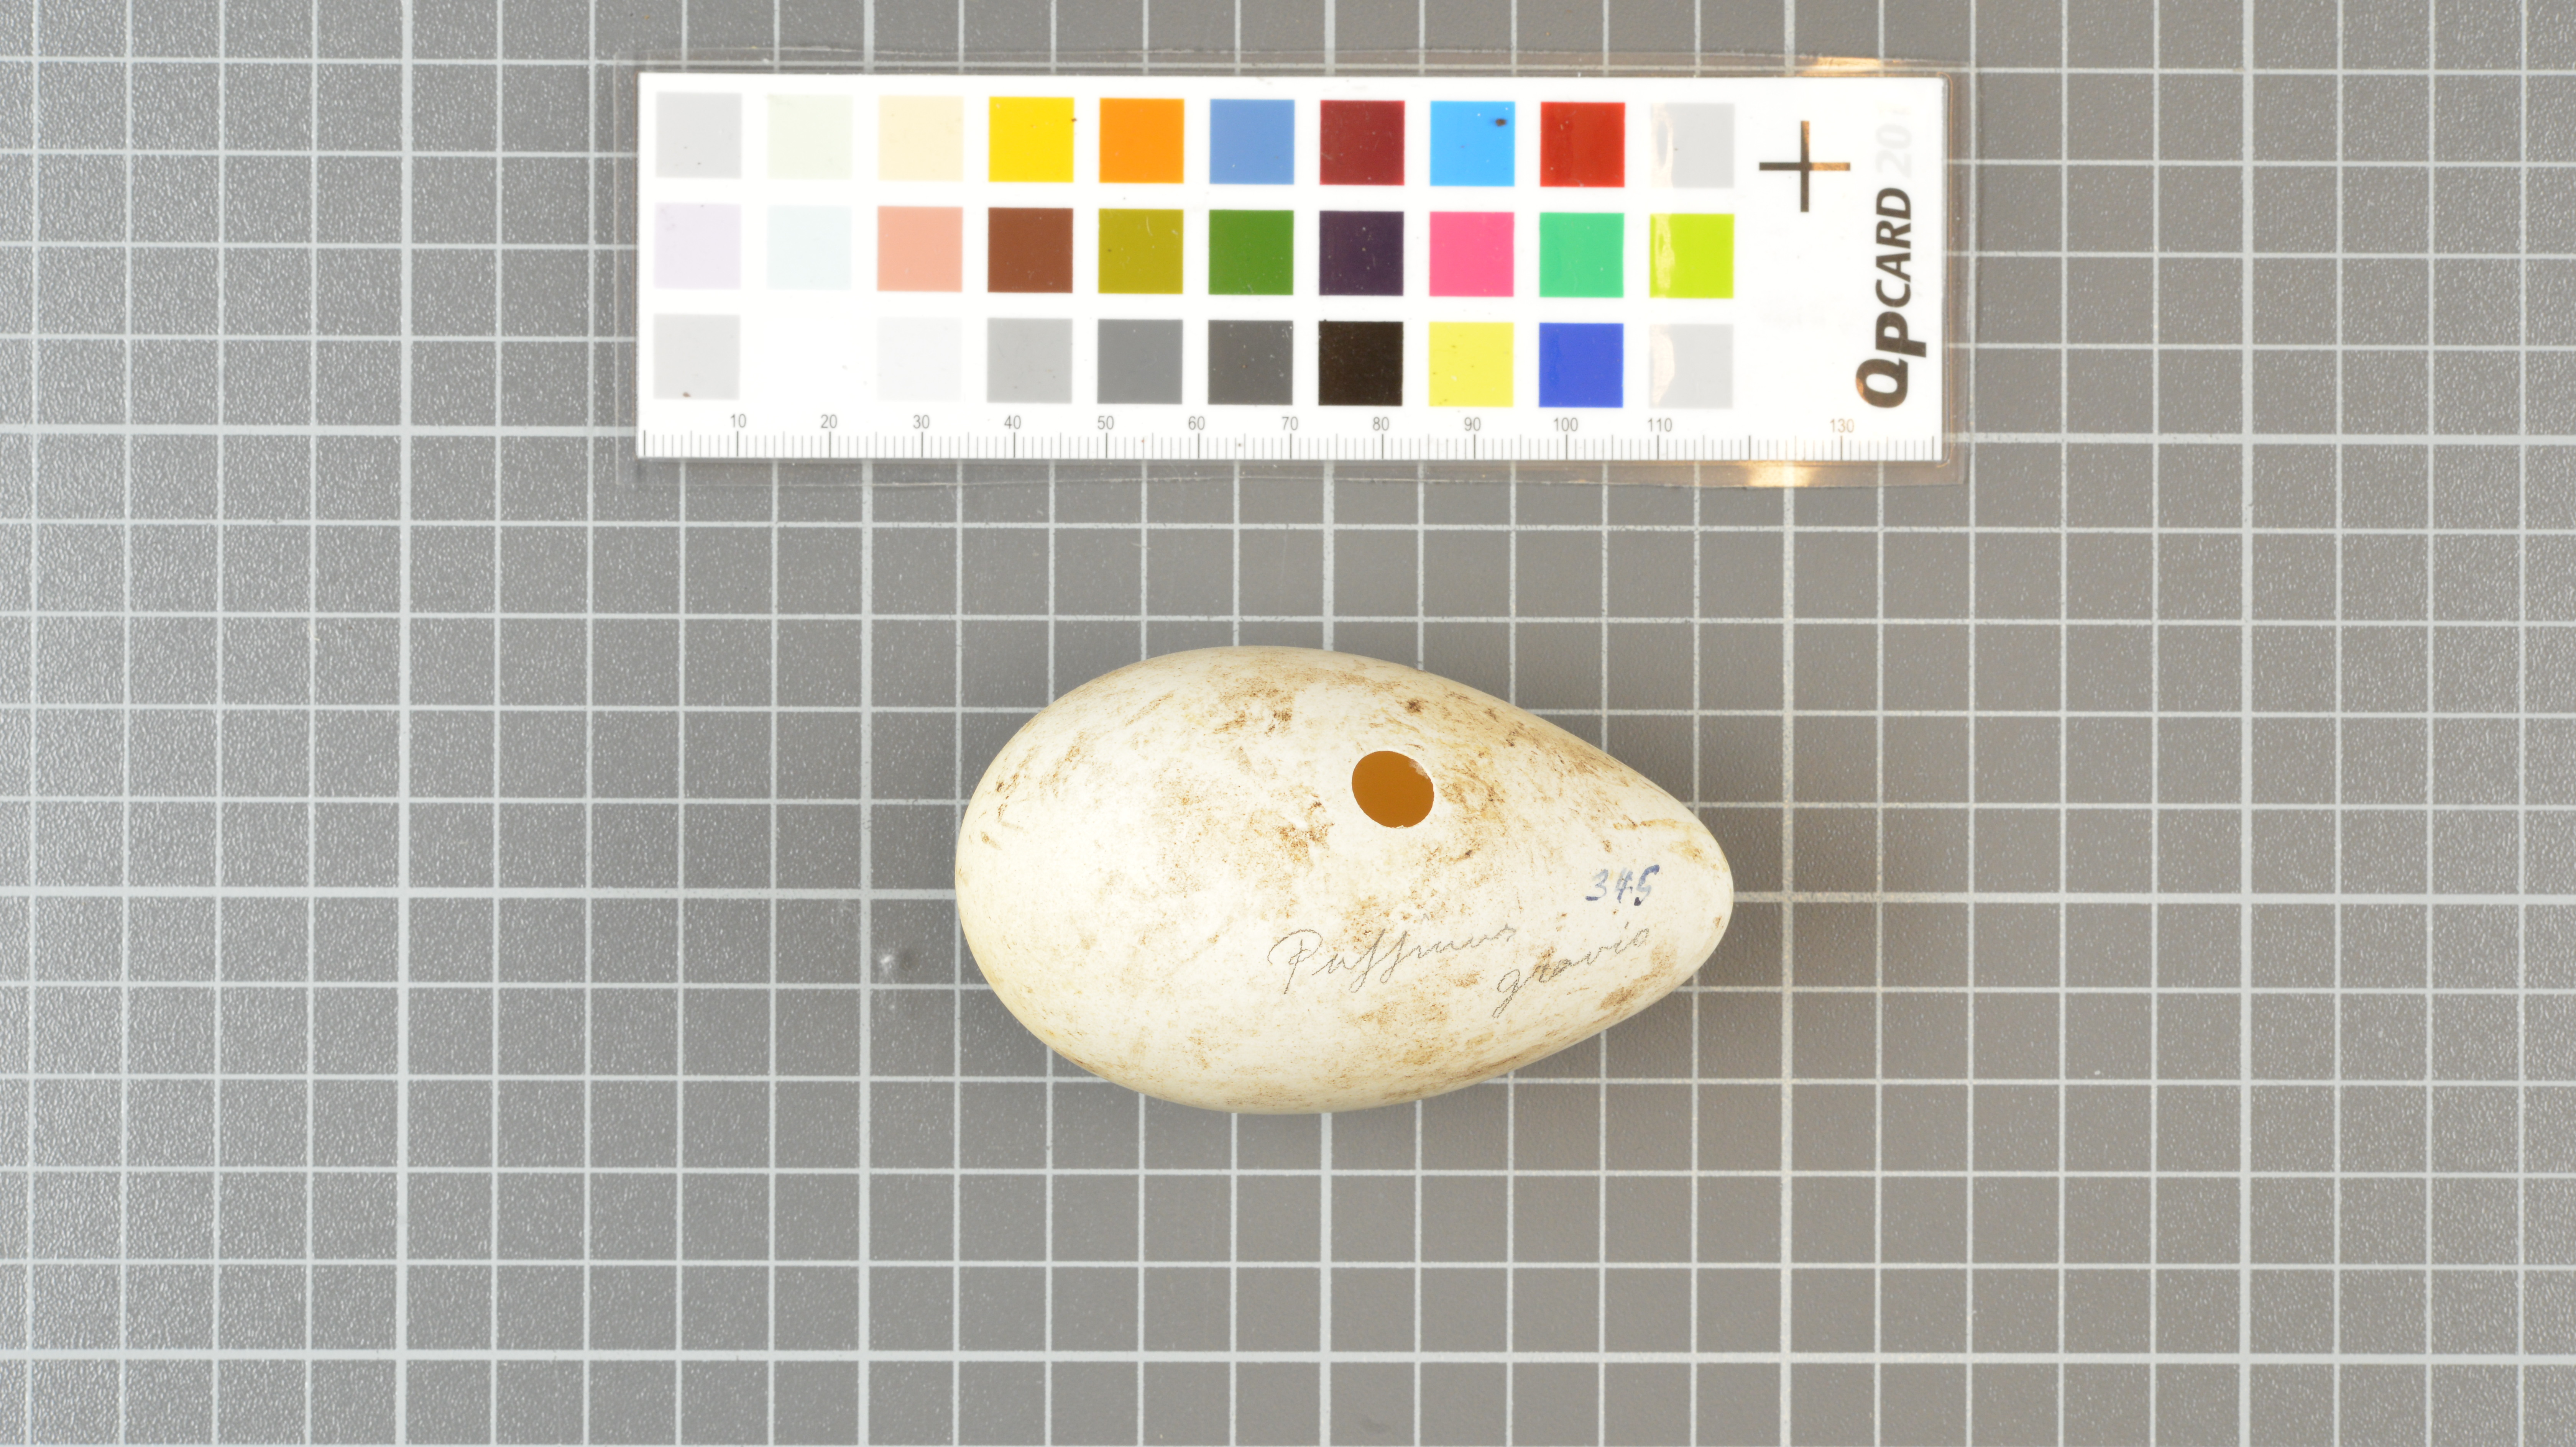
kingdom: Animalia
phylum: Chordata
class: Aves
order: Procellariiformes
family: Procellariidae
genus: Puffinus
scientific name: Puffinus gravis
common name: Great shearwater
